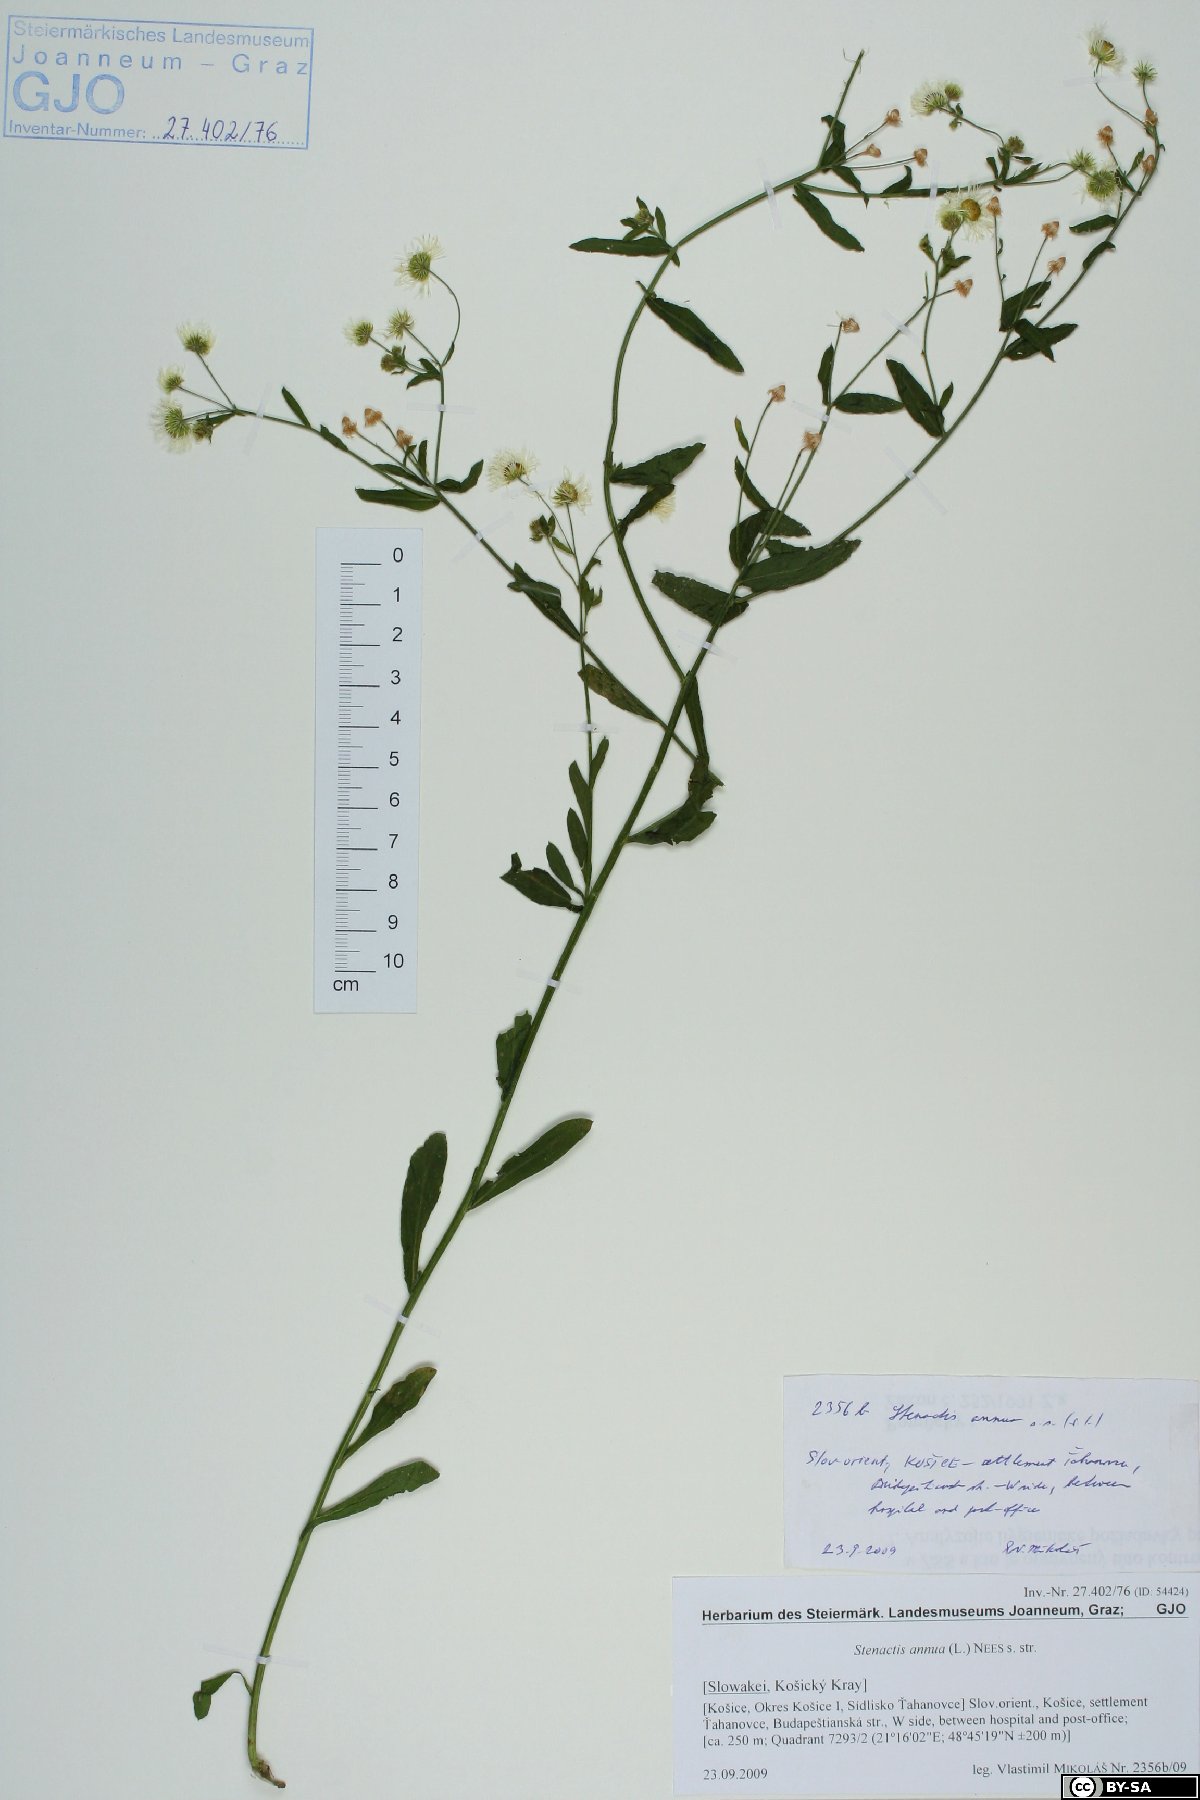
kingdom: Plantae
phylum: Tracheophyta
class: Magnoliopsida
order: Asterales
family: Asteraceae
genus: Erigeron
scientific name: Erigeron annuus
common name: Tall fleabane
